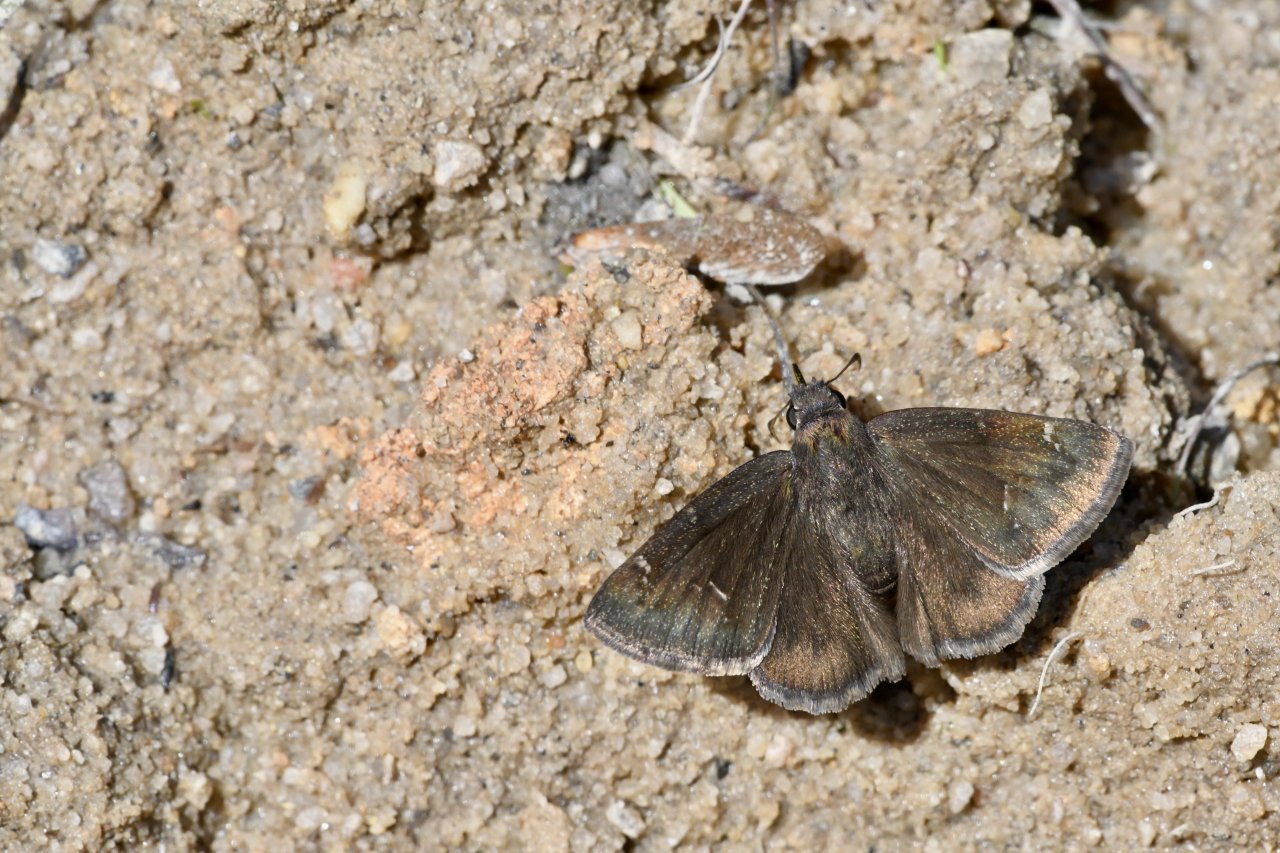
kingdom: Animalia
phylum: Arthropoda
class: Insecta
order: Lepidoptera
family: Hesperiidae
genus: Autochton
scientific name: Autochton
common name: Northern Cloudywing
